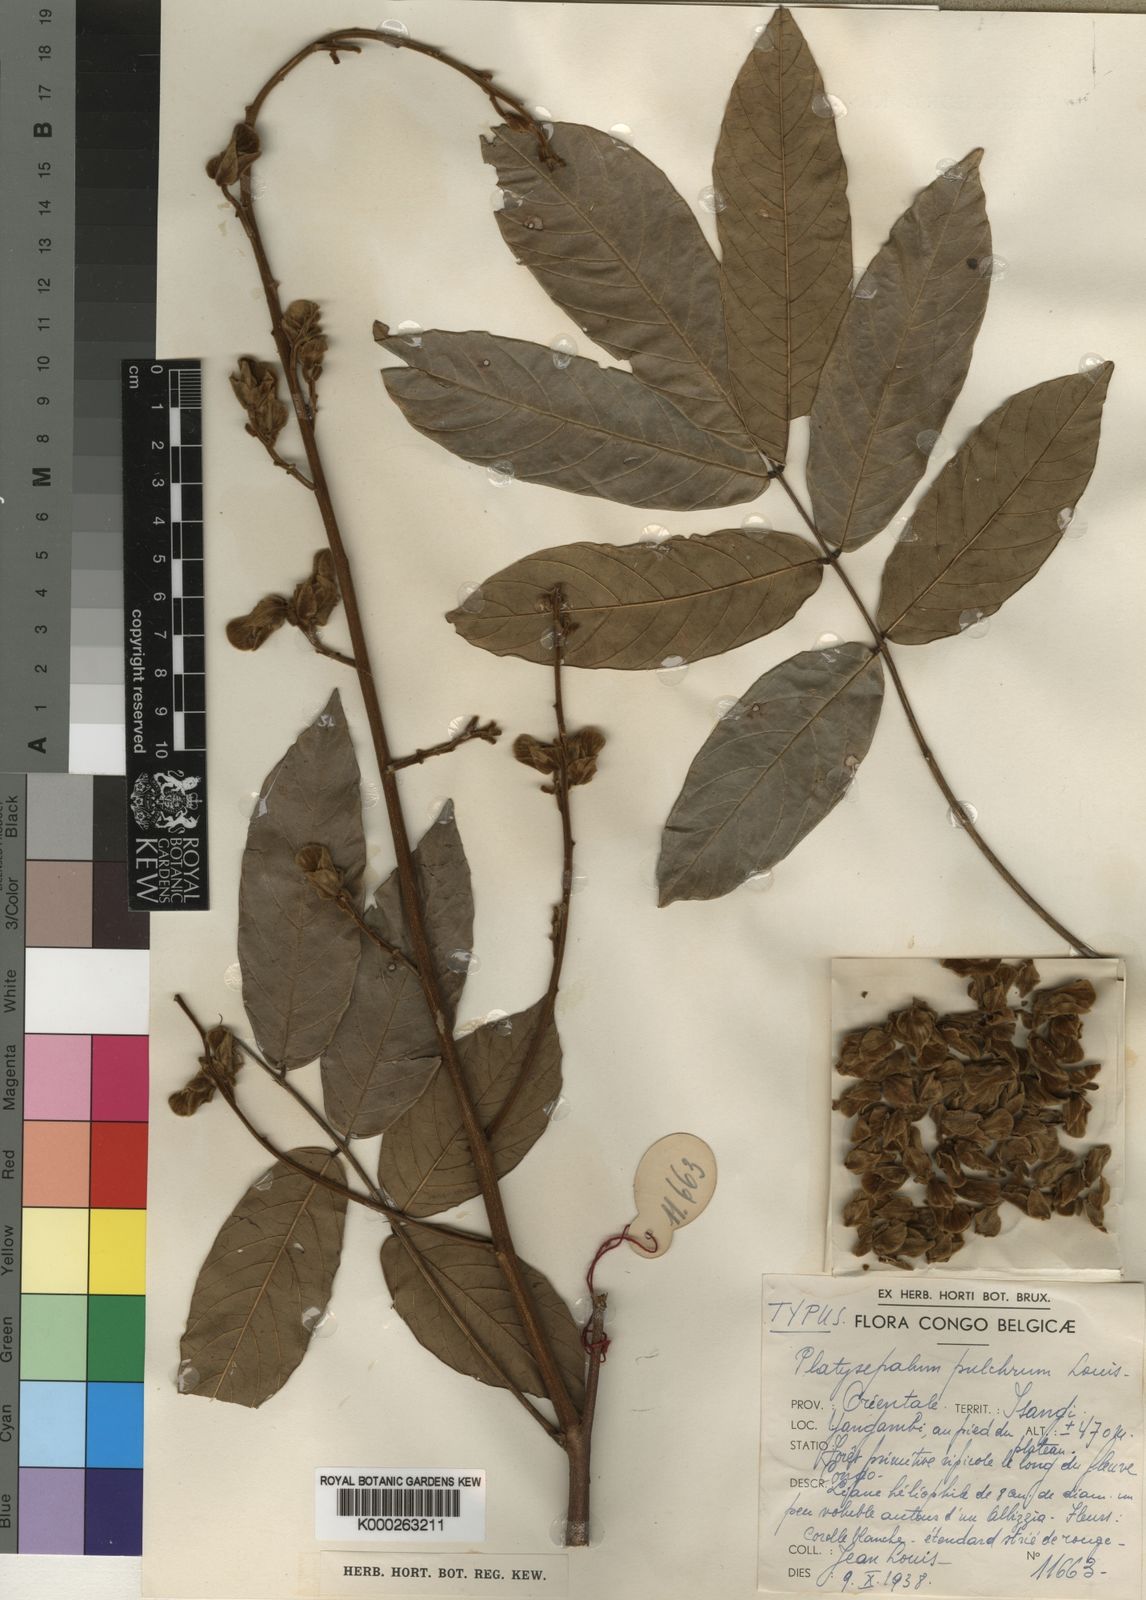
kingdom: Plantae
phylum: Tracheophyta
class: Magnoliopsida
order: Fabales
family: Fabaceae
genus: Platysepalum
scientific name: Platysepalum
